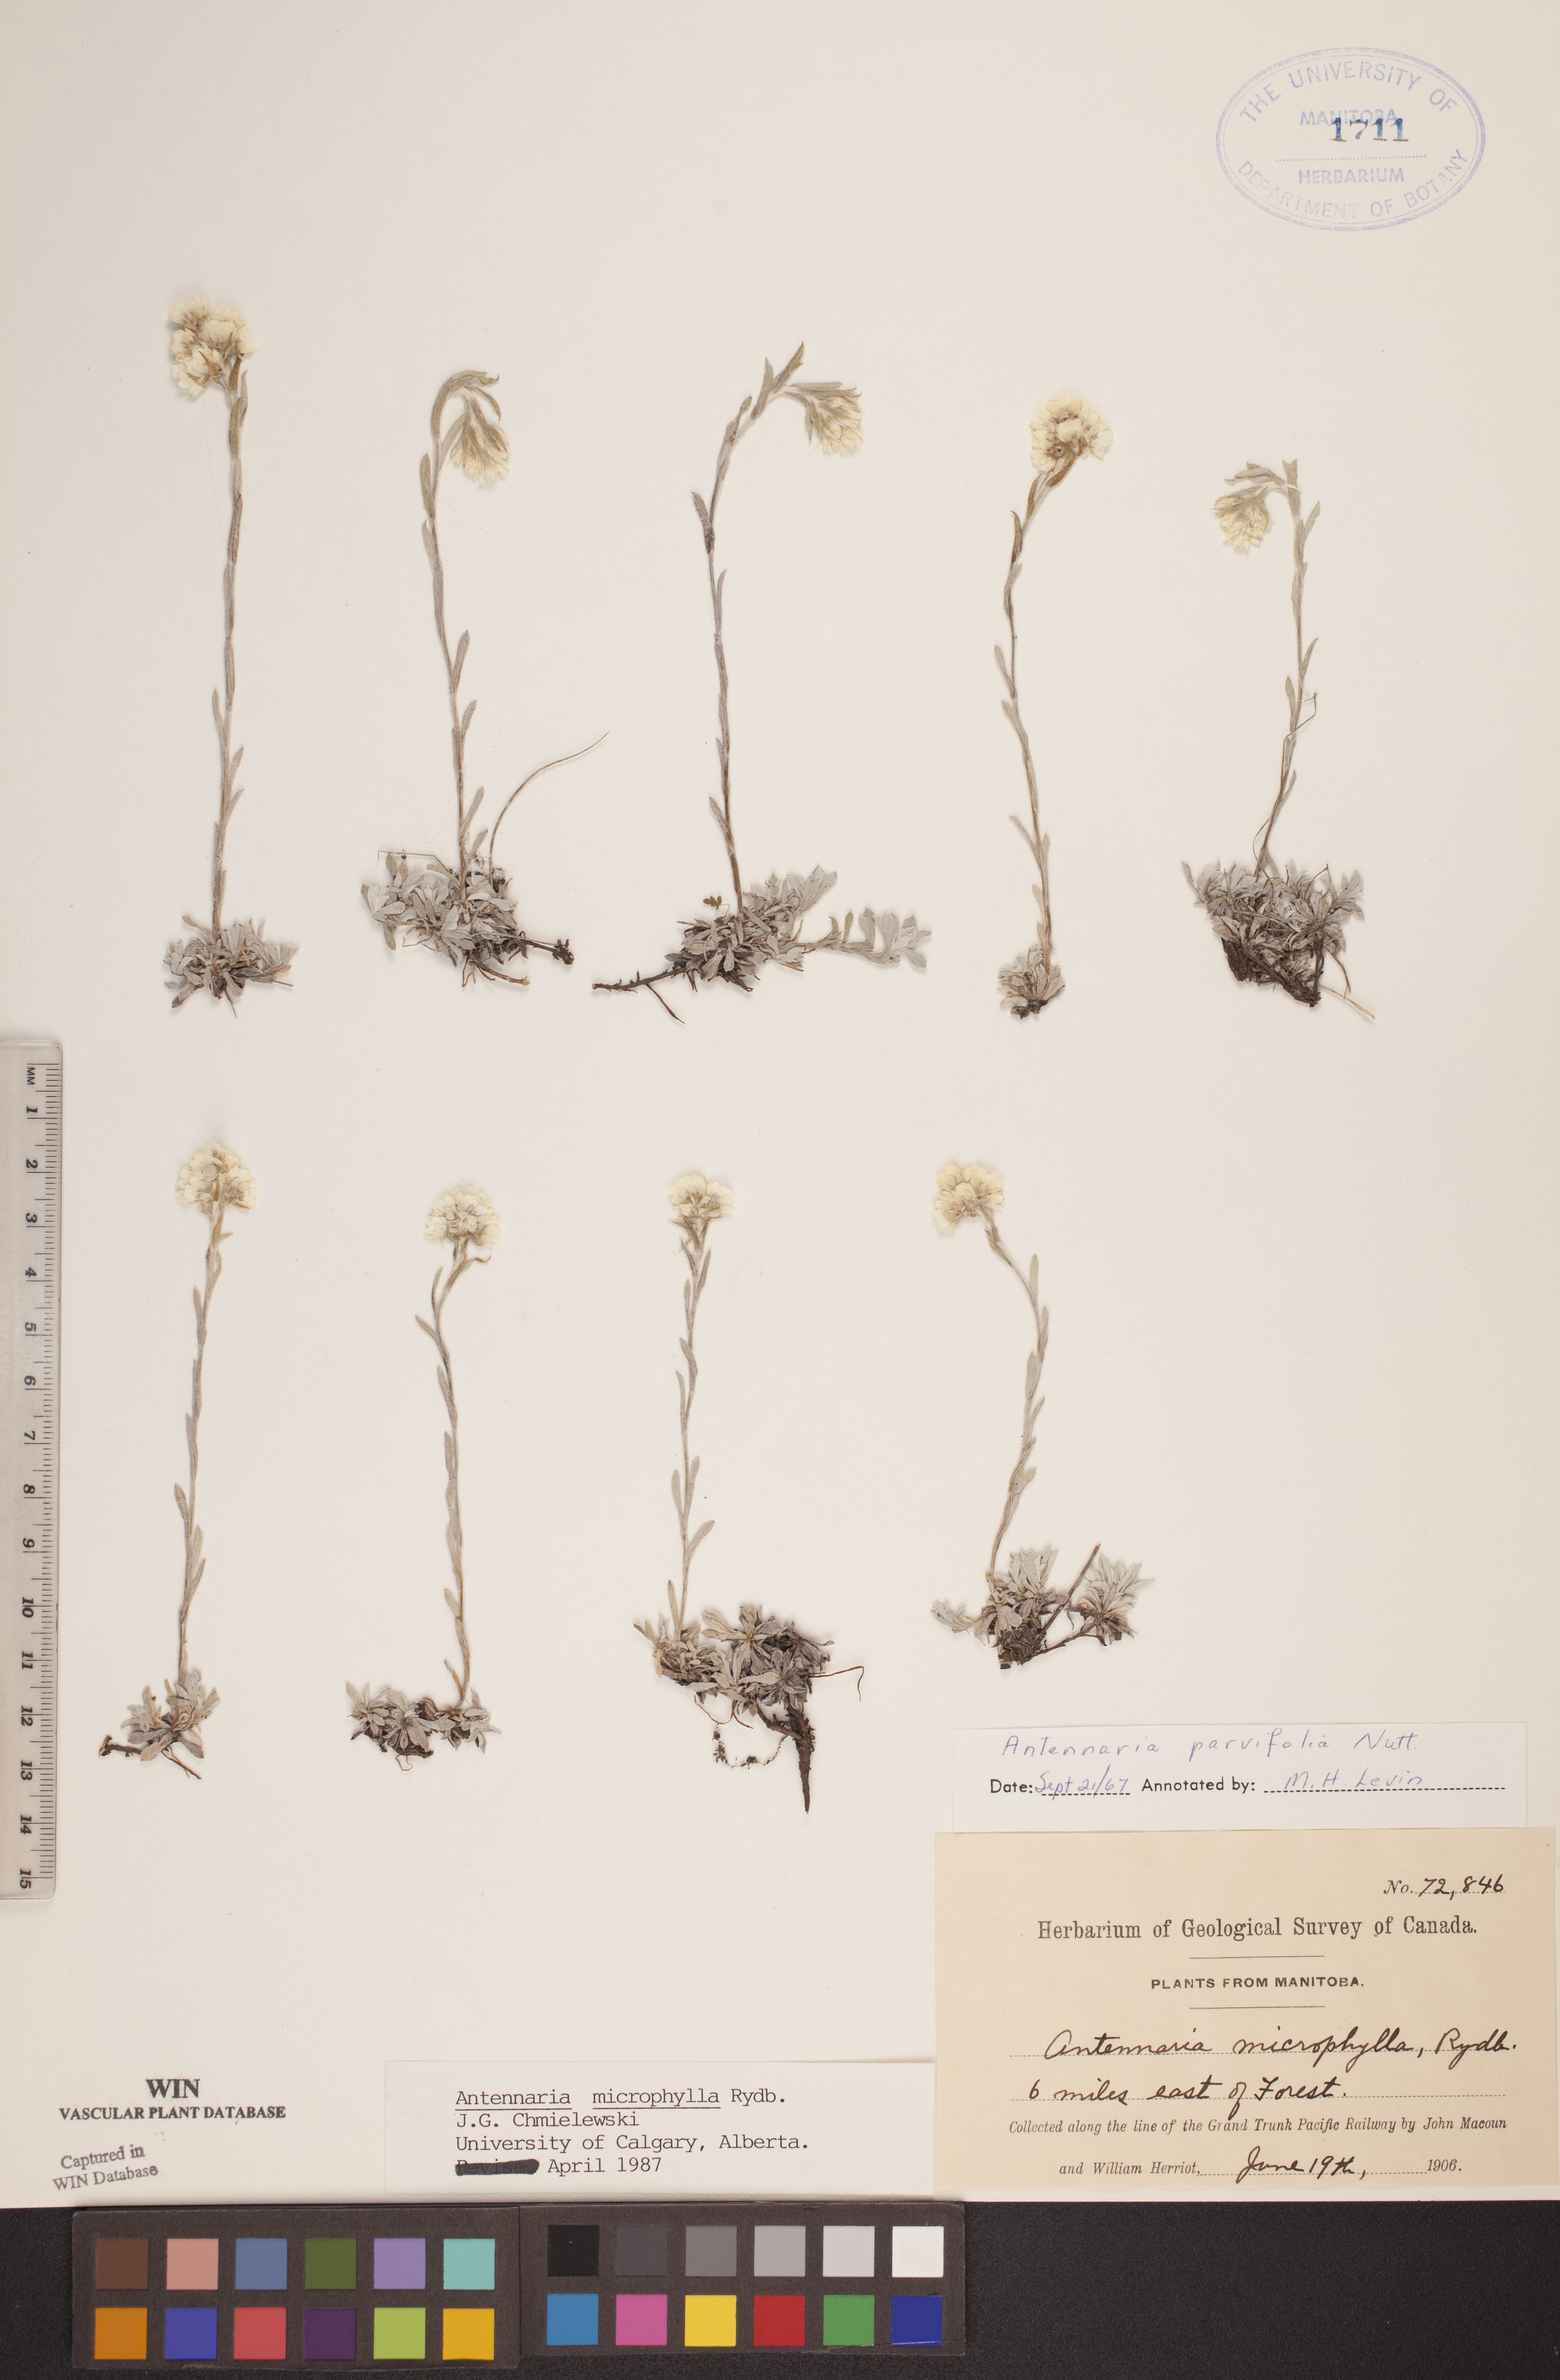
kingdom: Plantae
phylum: Tracheophyta
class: Magnoliopsida
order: Asterales
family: Asteraceae
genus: Antennaria
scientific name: Antennaria microphylla
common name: Littleleaf pussytoes
